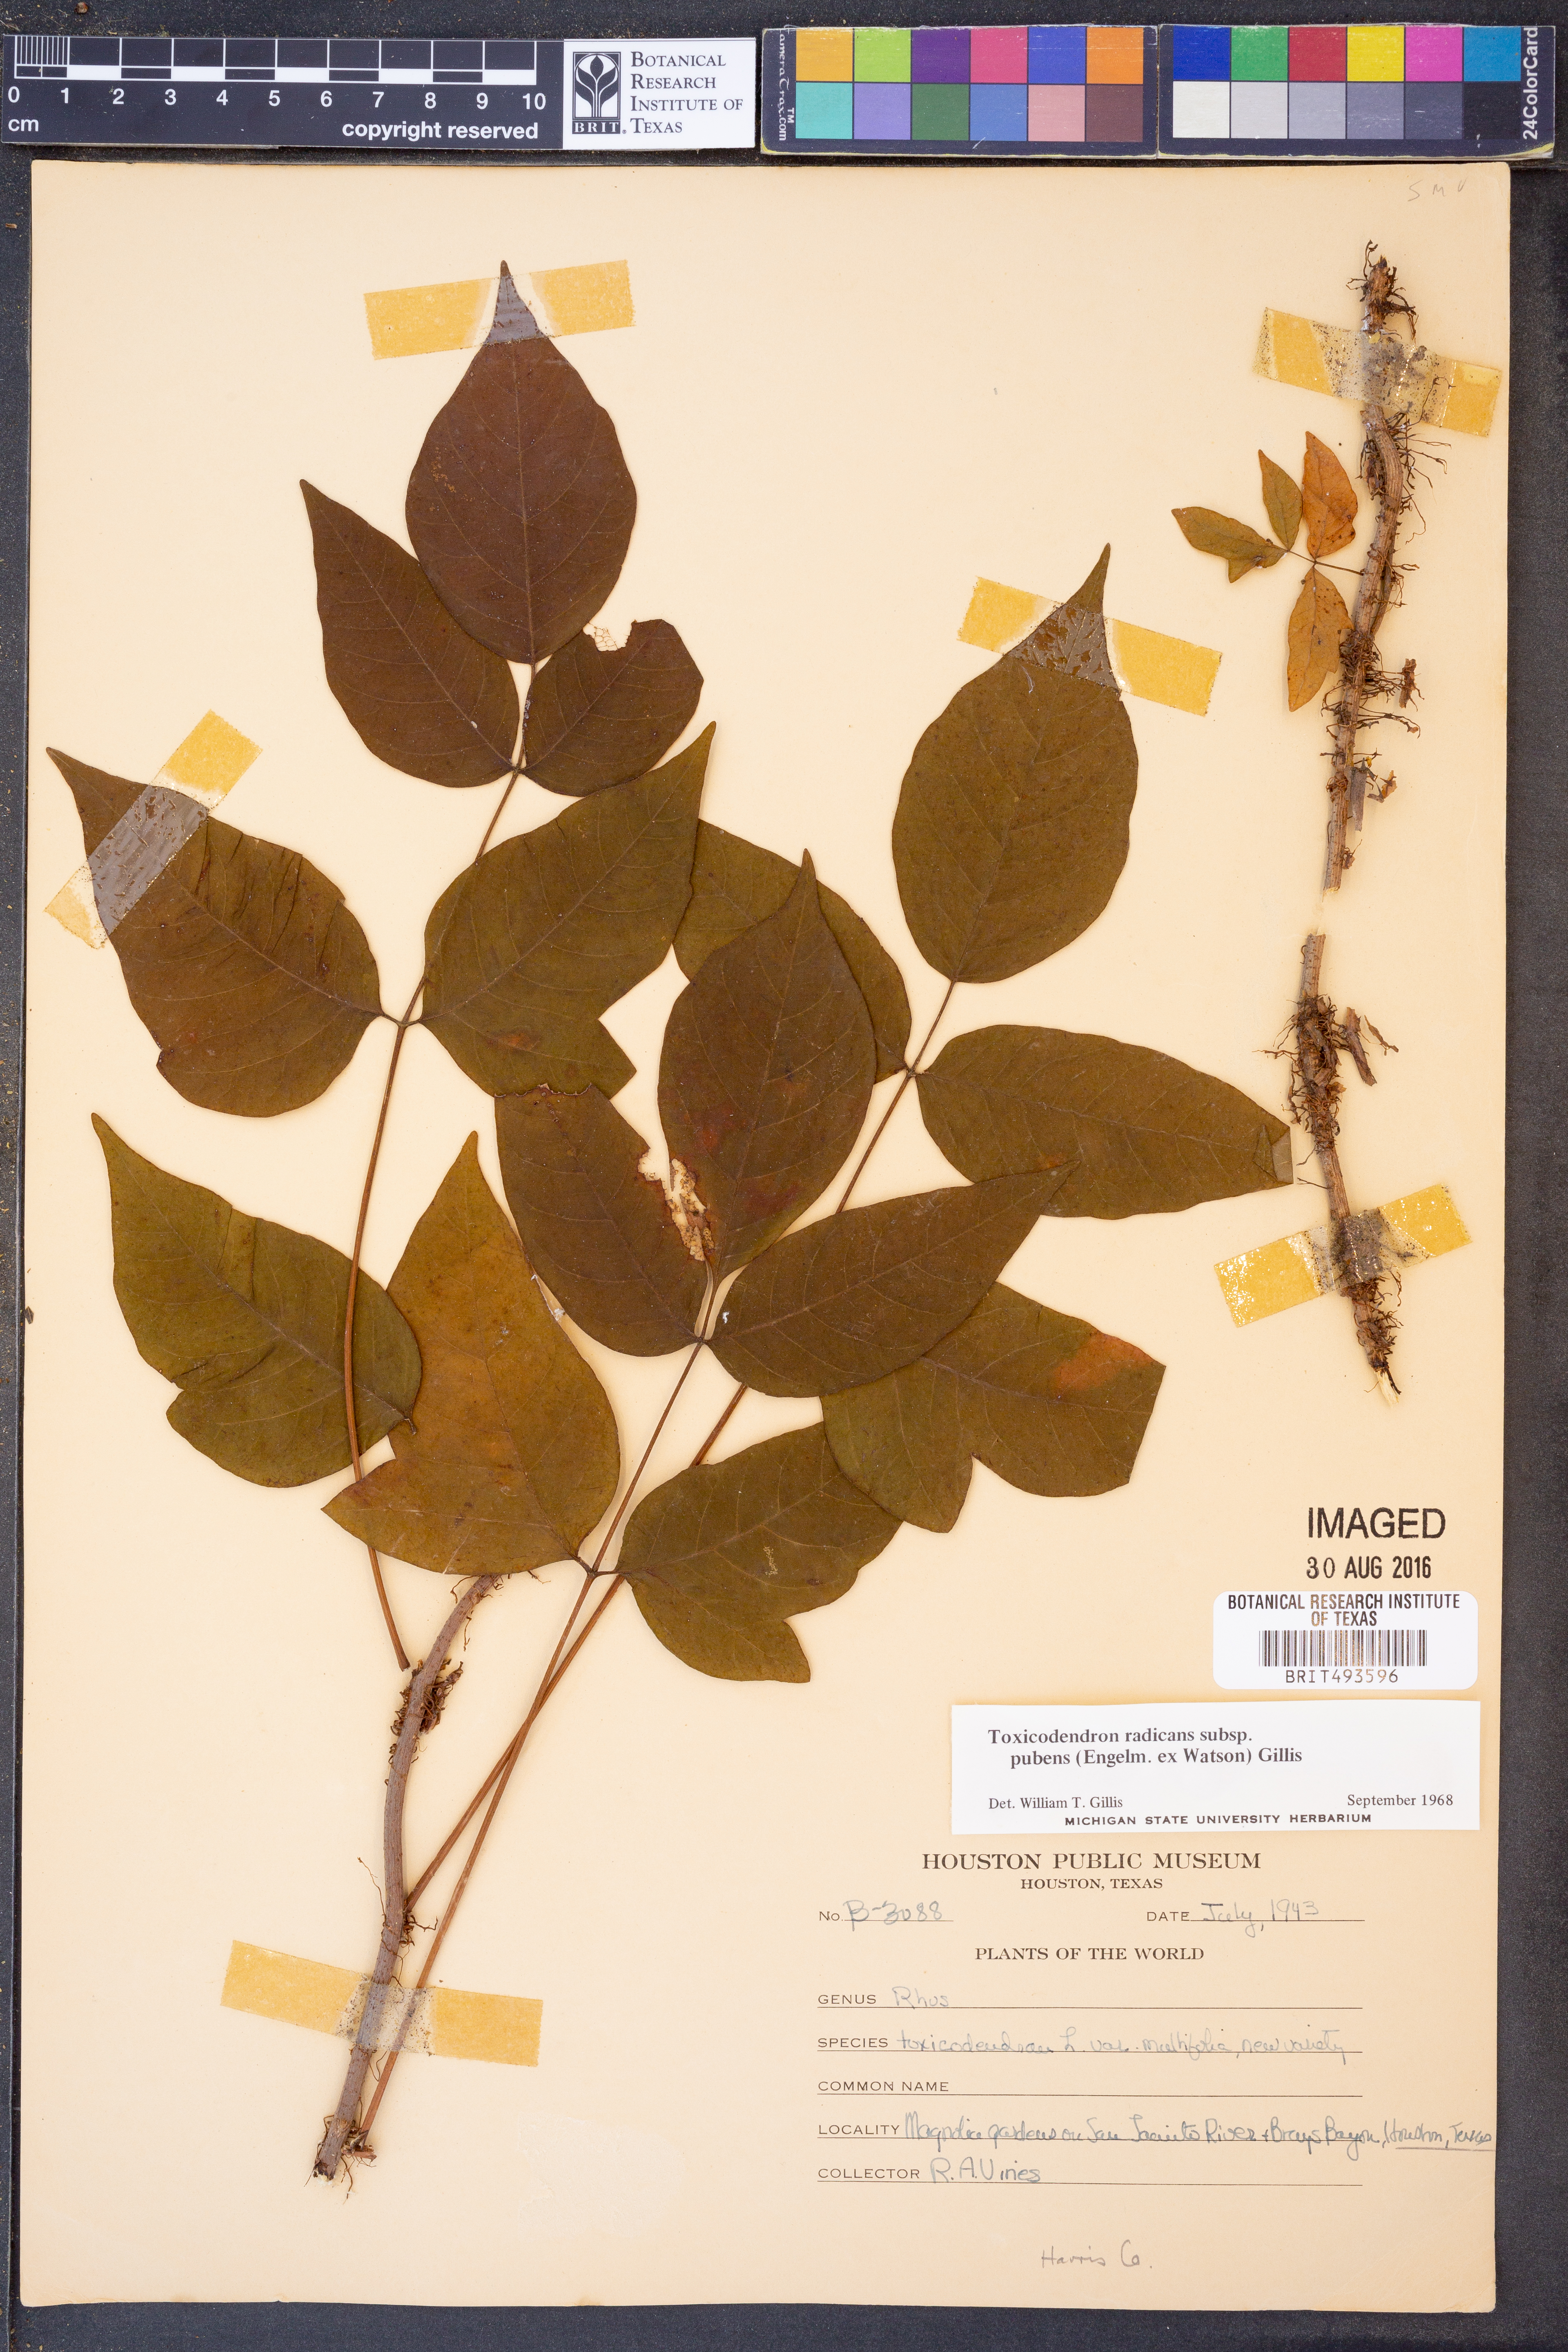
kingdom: Plantae
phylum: Tracheophyta
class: Magnoliopsida
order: Sapindales
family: Anacardiaceae
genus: Toxicodendron
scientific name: Toxicodendron radicans
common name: Poison ivy
